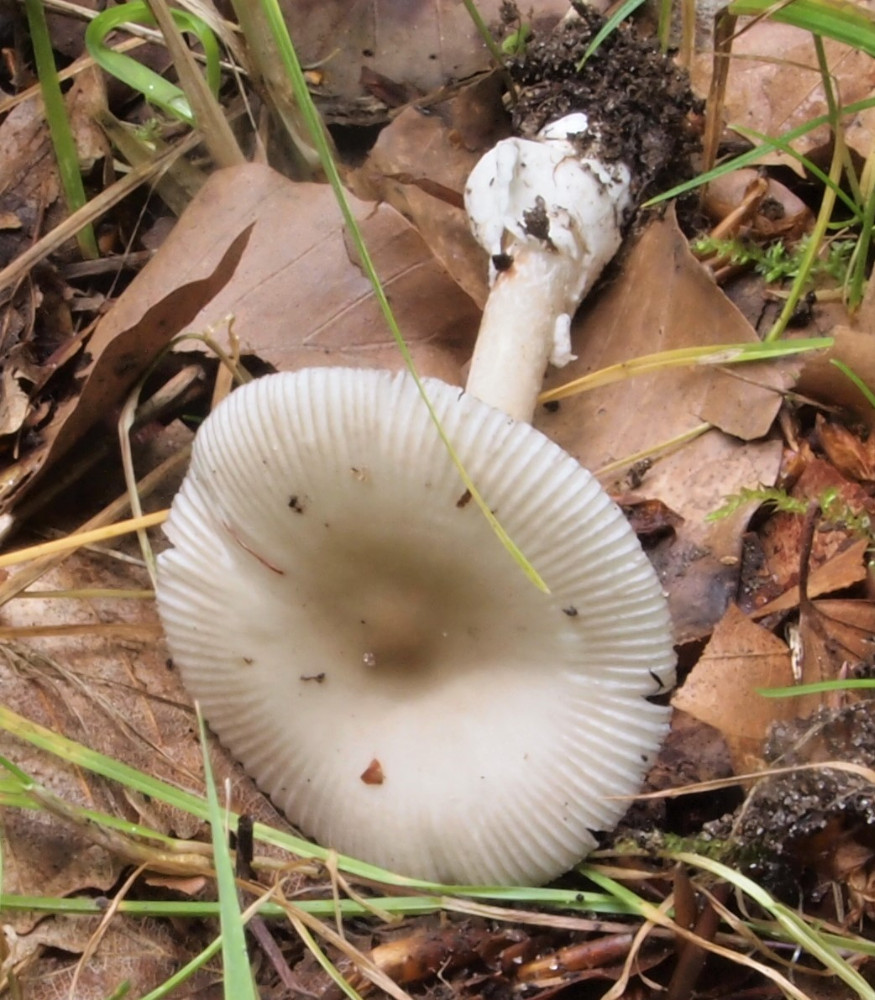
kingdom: Fungi
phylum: Basidiomycota
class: Agaricomycetes
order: Agaricales
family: Amanitaceae
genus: Amanita
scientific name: Amanita vaginata
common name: grå kam-fluesvamp
